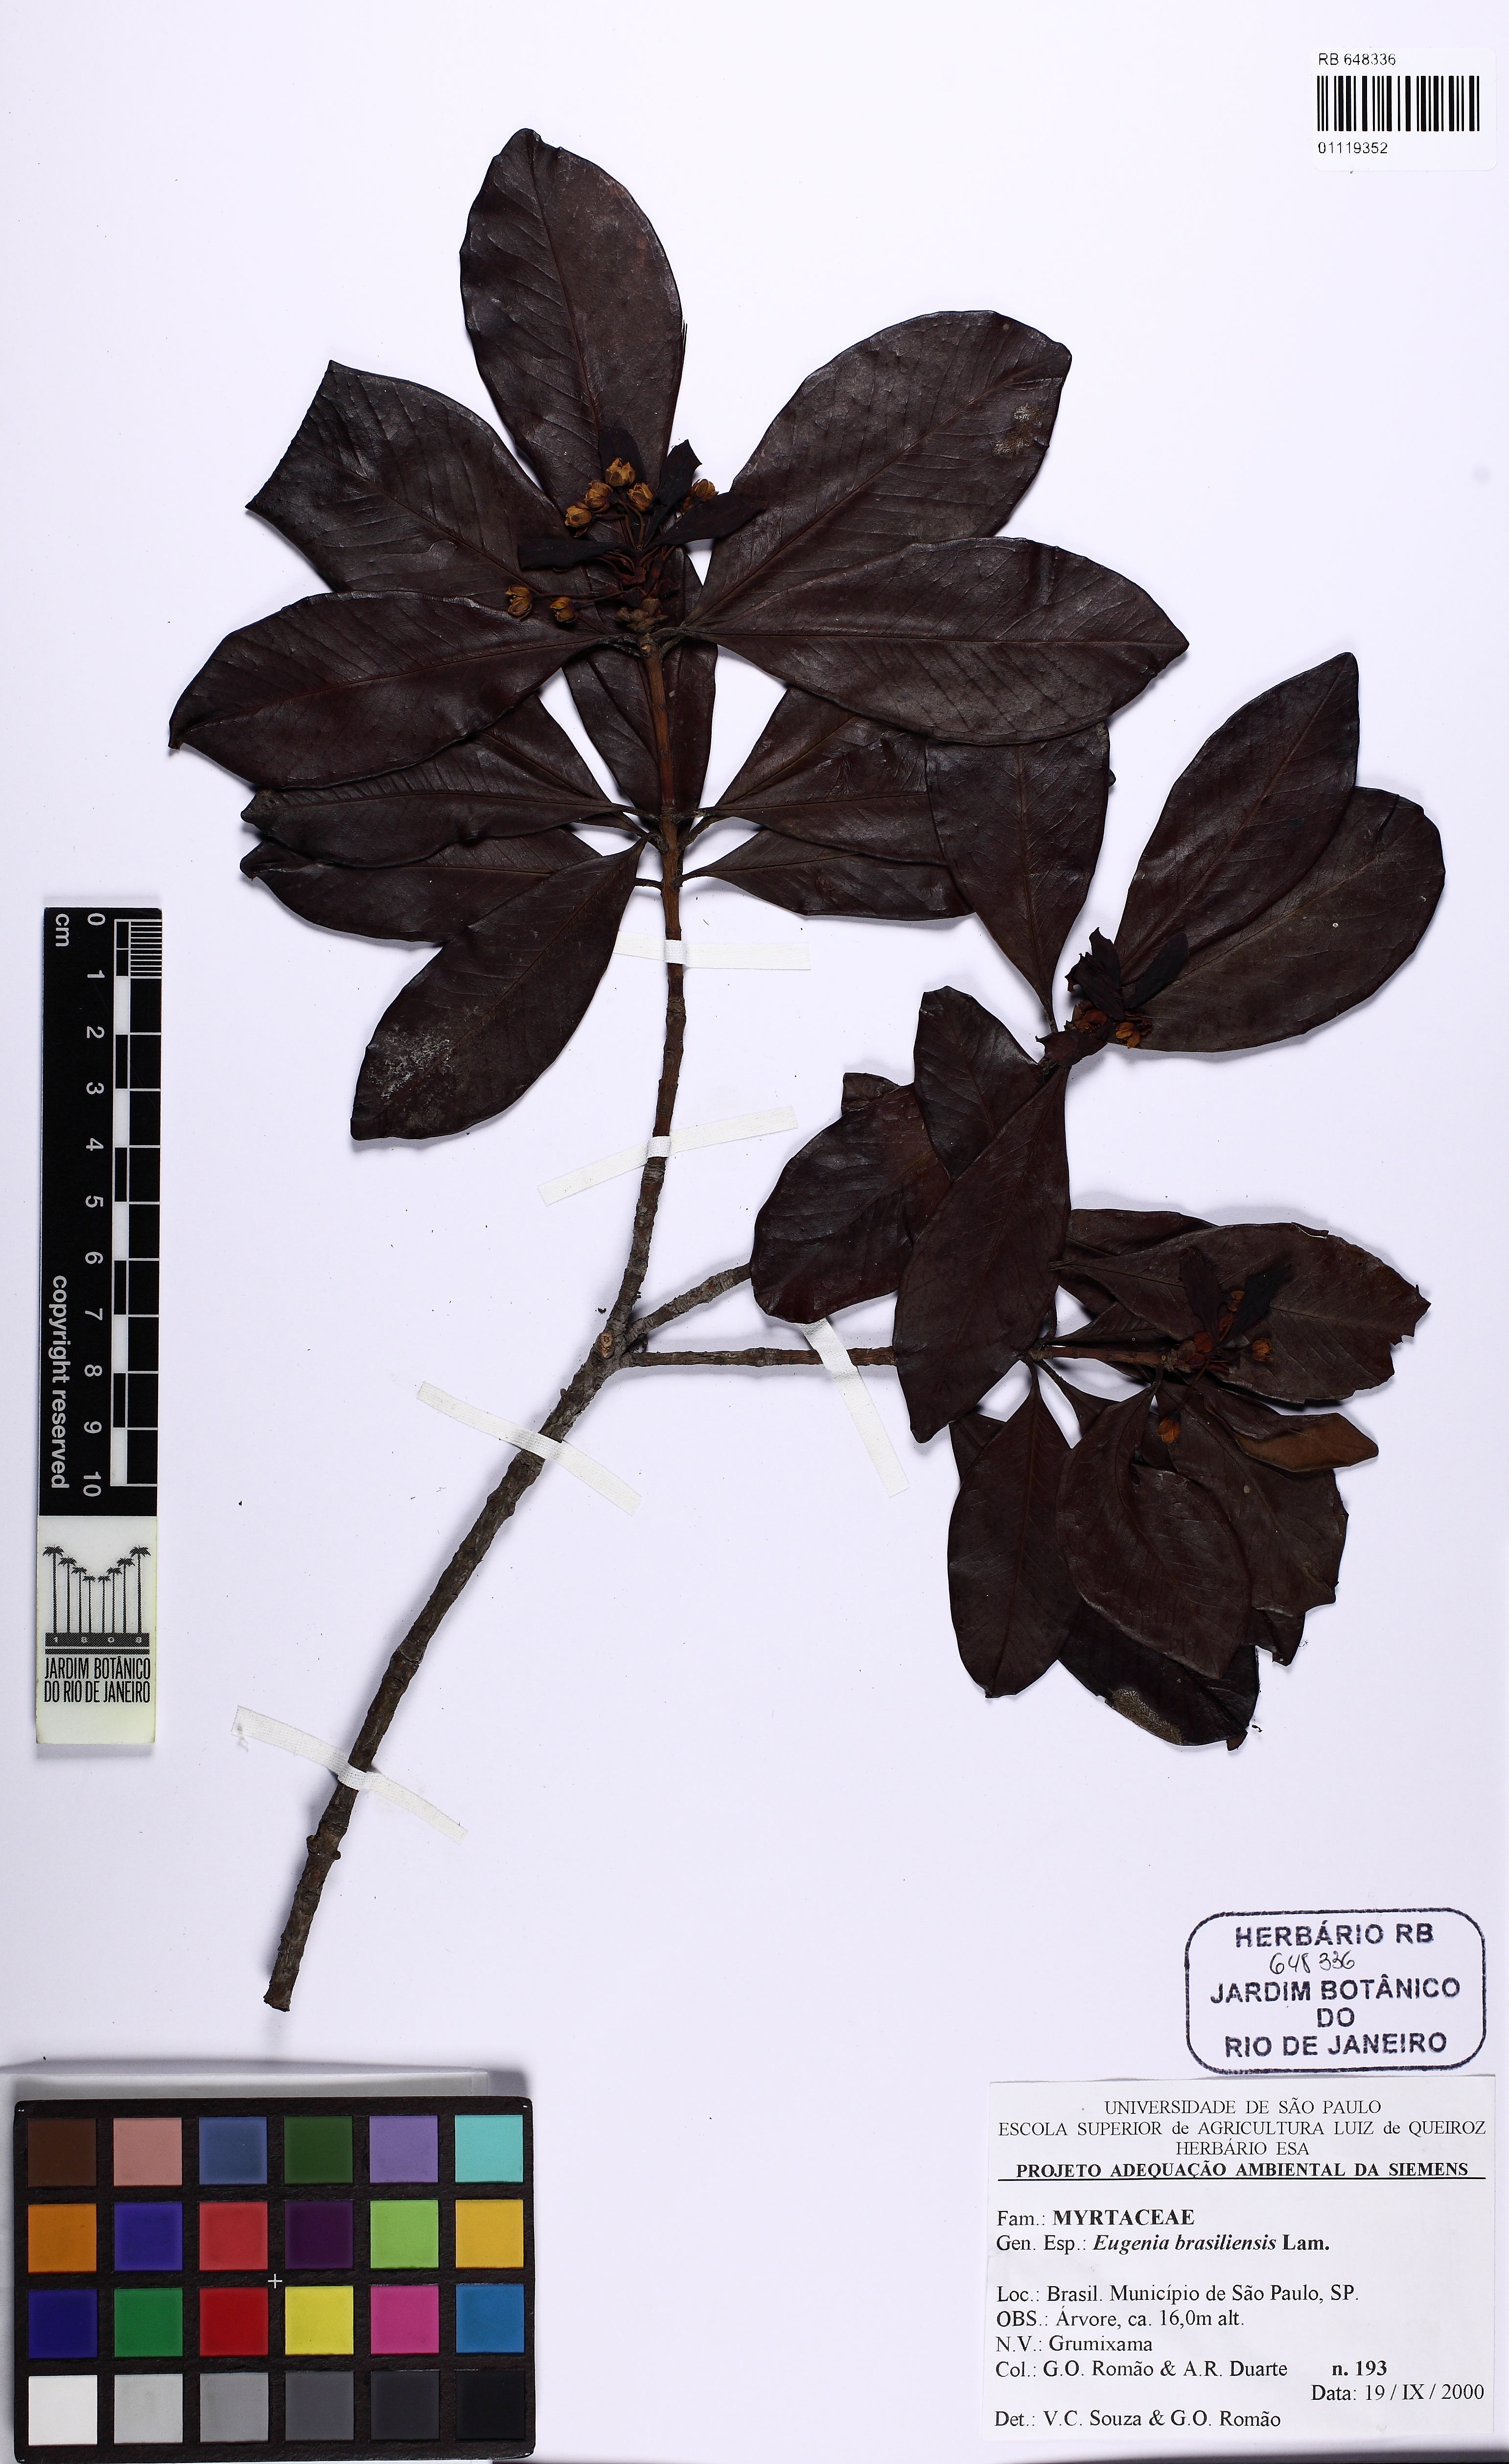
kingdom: Plantae
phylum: Tracheophyta
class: Magnoliopsida
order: Myrtales
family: Myrtaceae
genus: Eugenia
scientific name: Eugenia brasiliensis
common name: Grumichama
